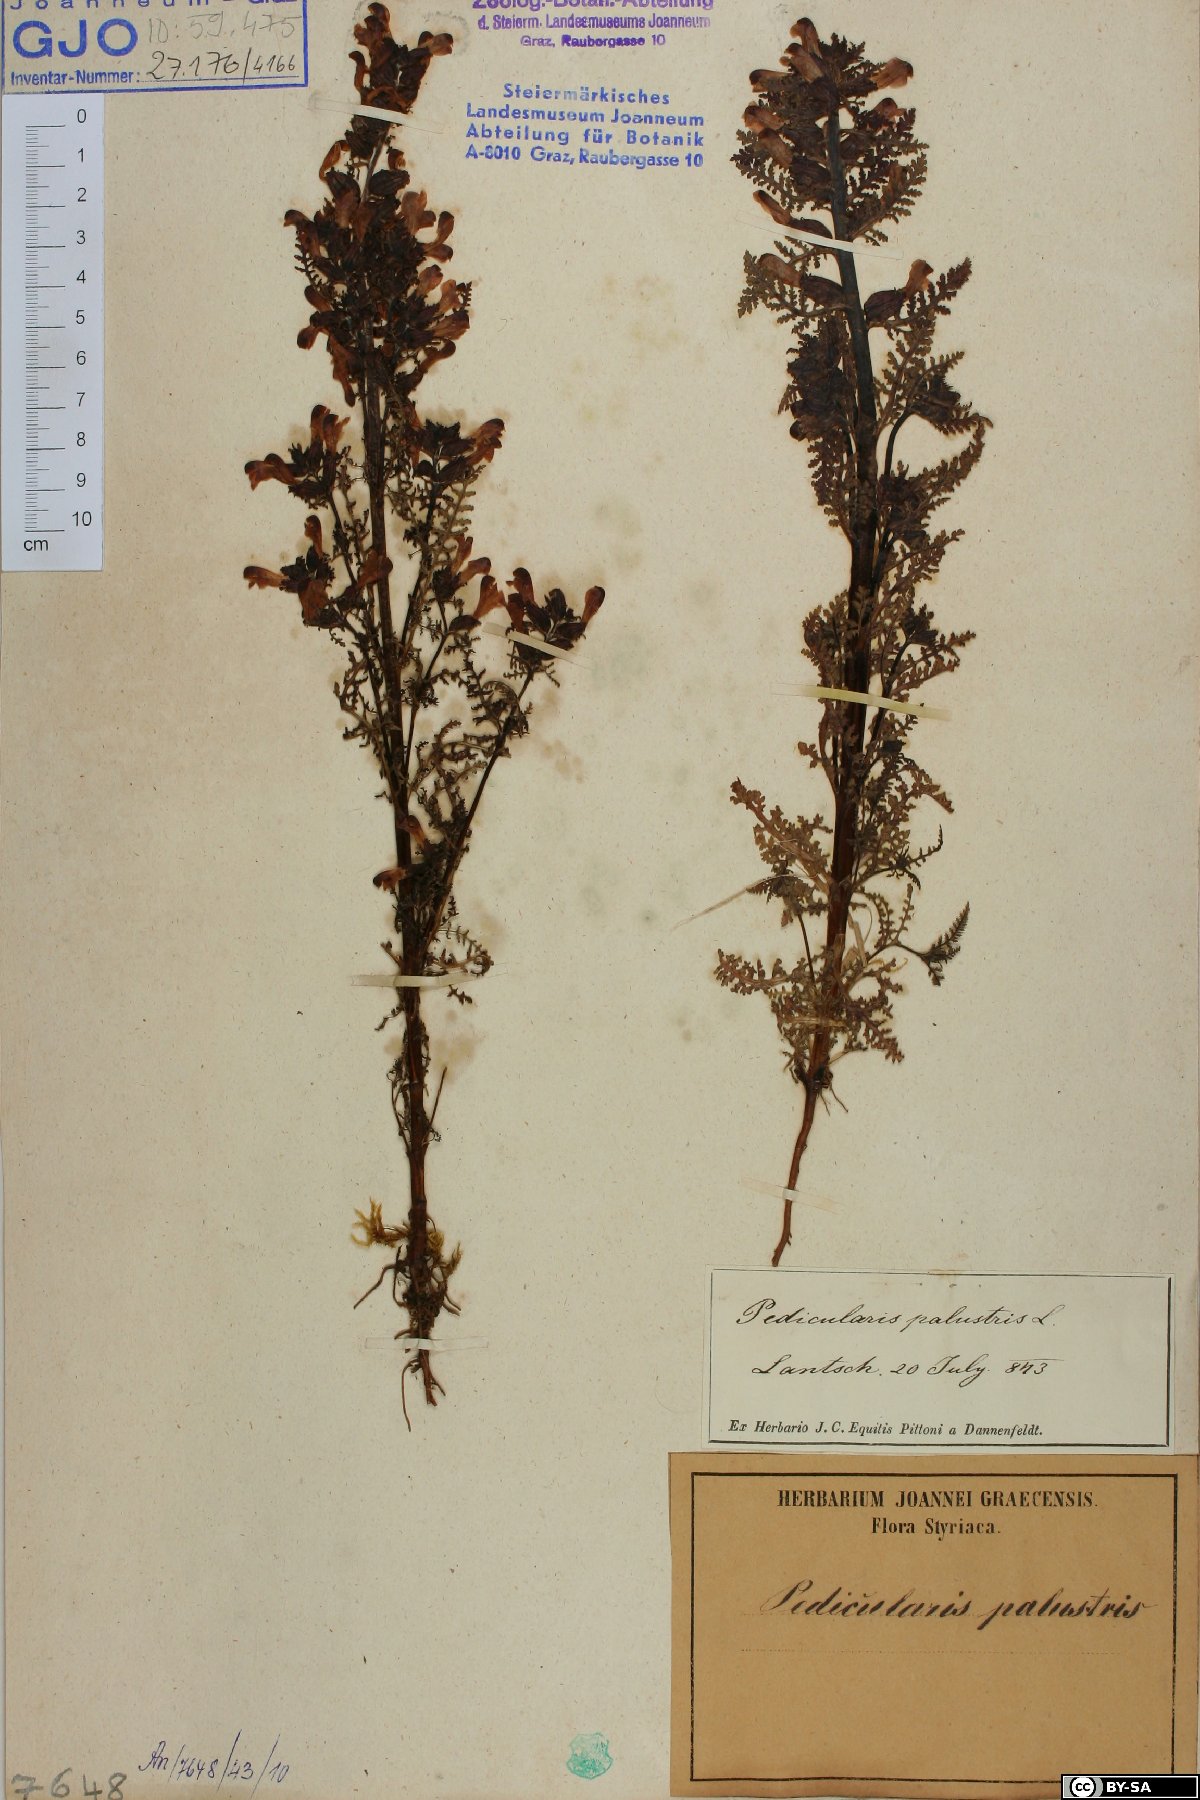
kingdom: Plantae
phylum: Tracheophyta
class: Magnoliopsida
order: Lamiales
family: Orobanchaceae
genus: Pedicularis
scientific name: Pedicularis palustris
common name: Marsh lousewort
